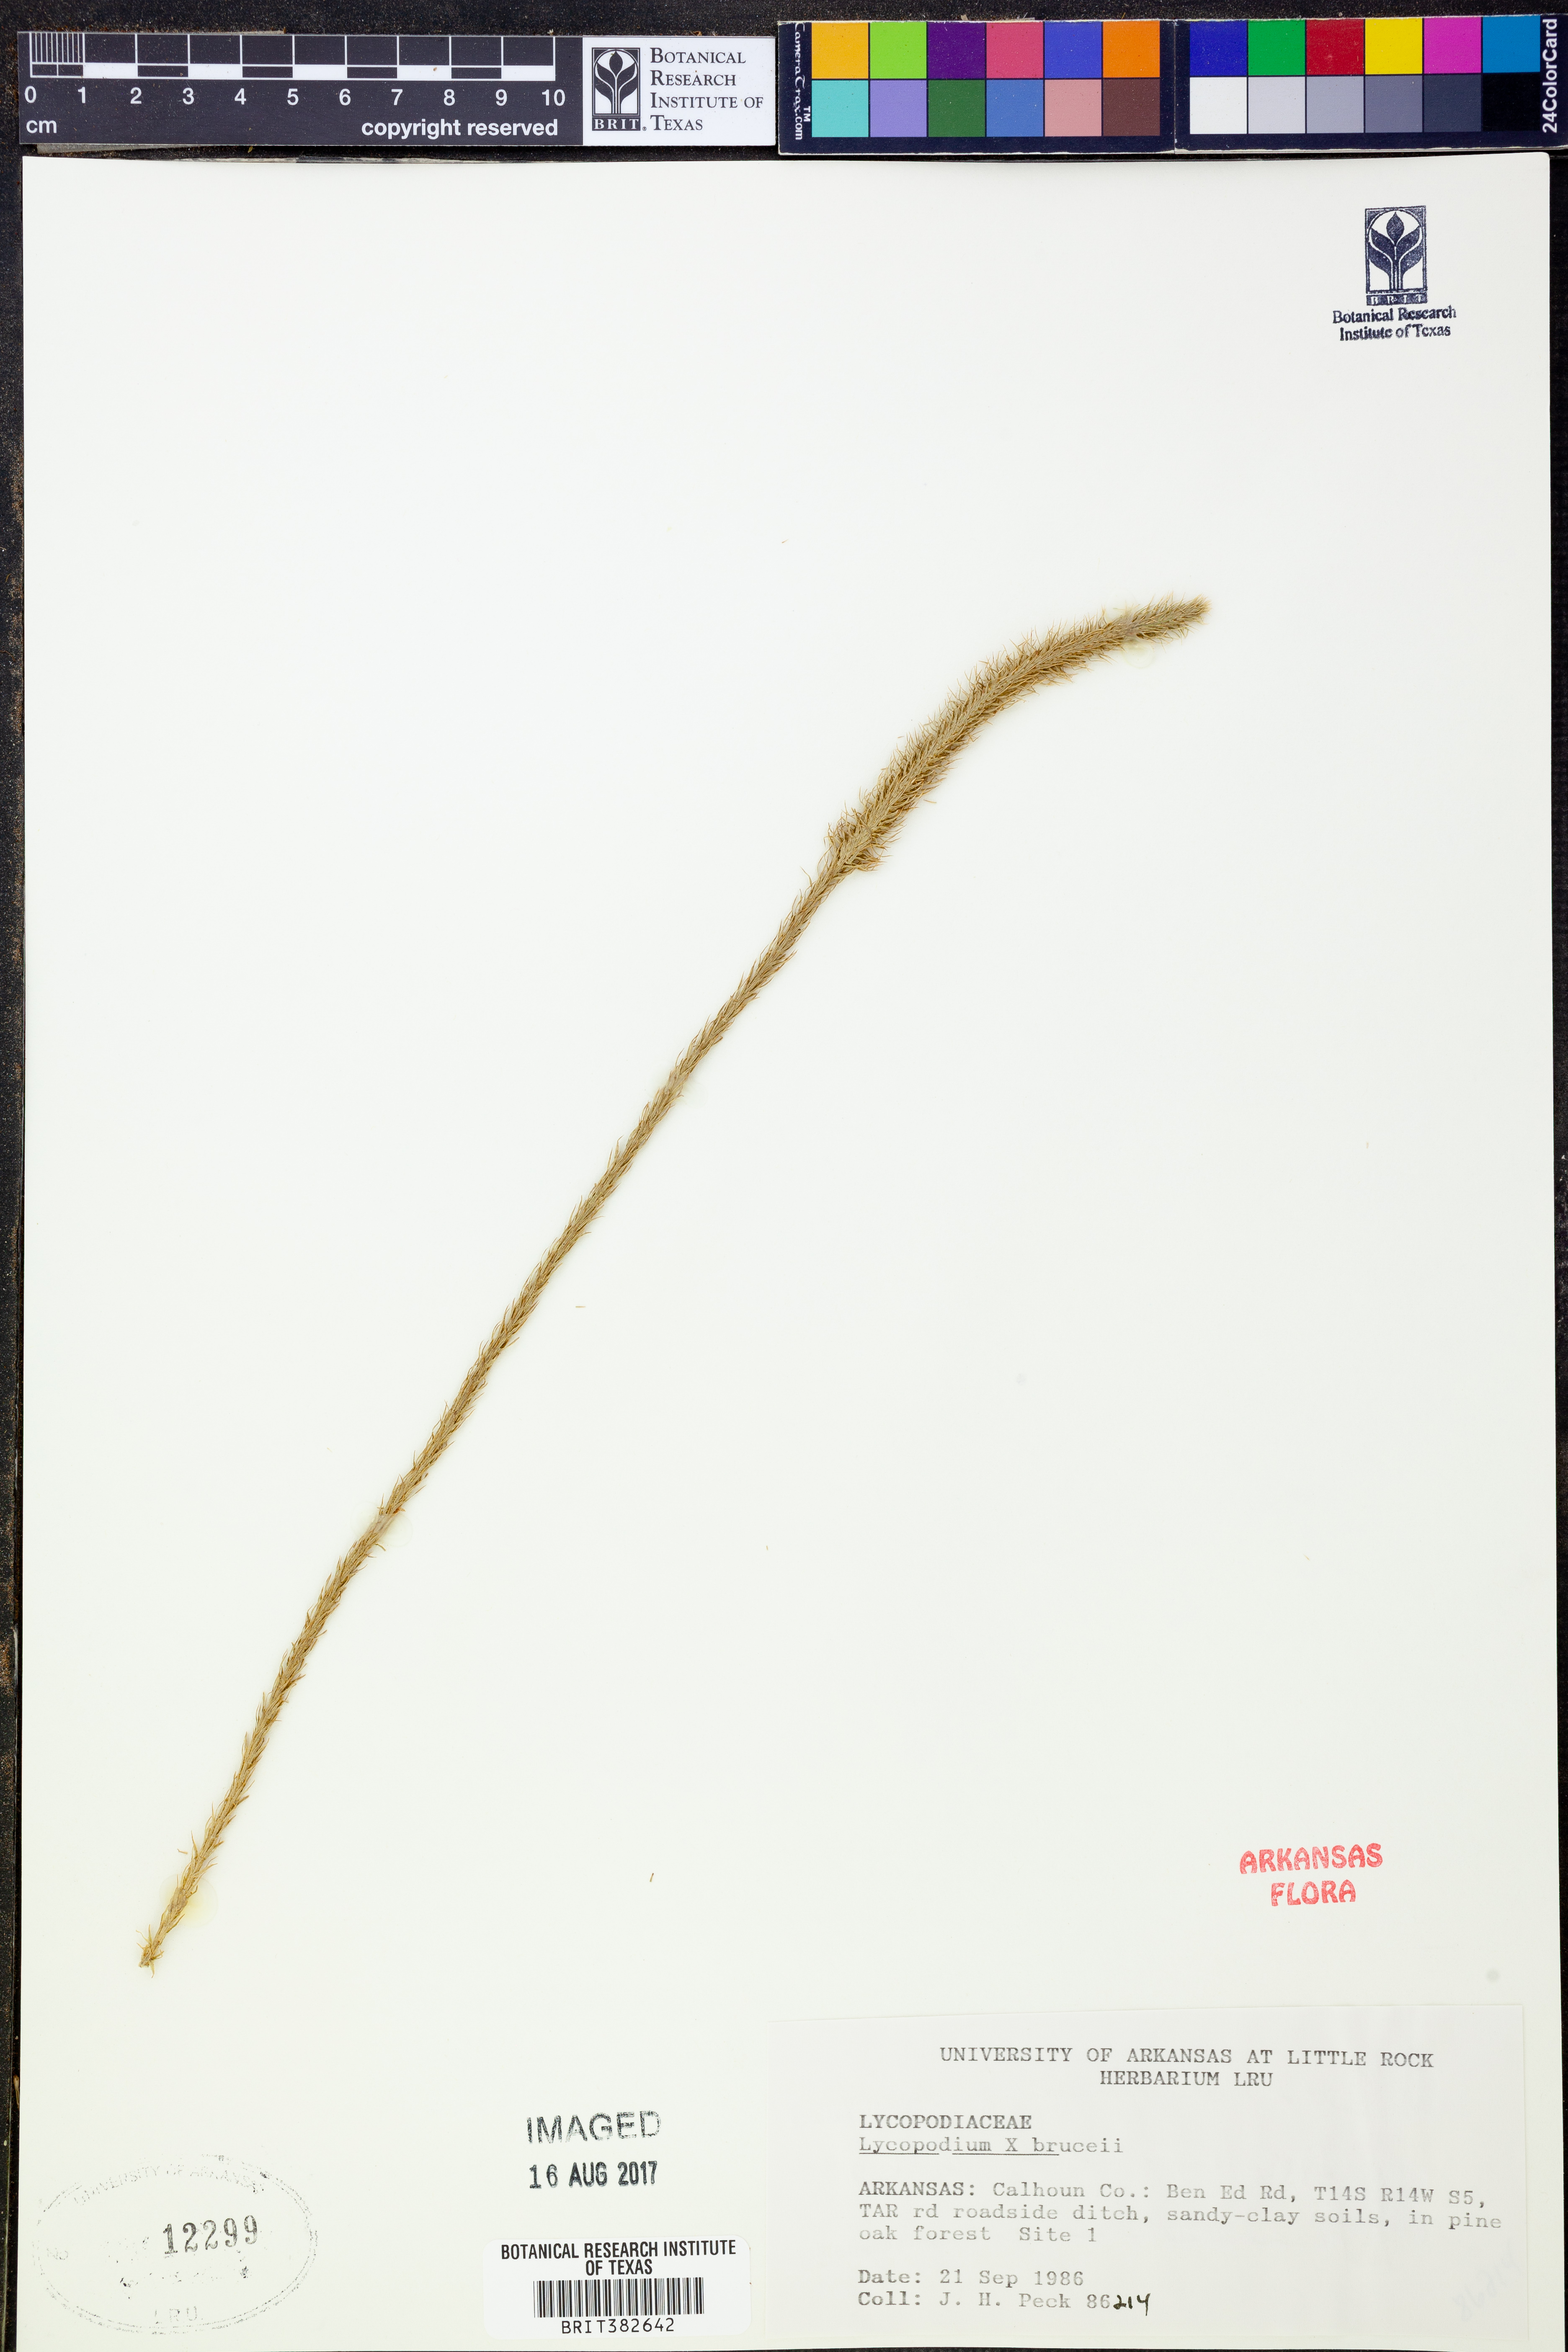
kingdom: Plantae
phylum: Tracheophyta
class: Lycopodiopsida
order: Lycopodiales
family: Lycopodiaceae
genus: Lycopodiella
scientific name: Lycopodiella brucei
